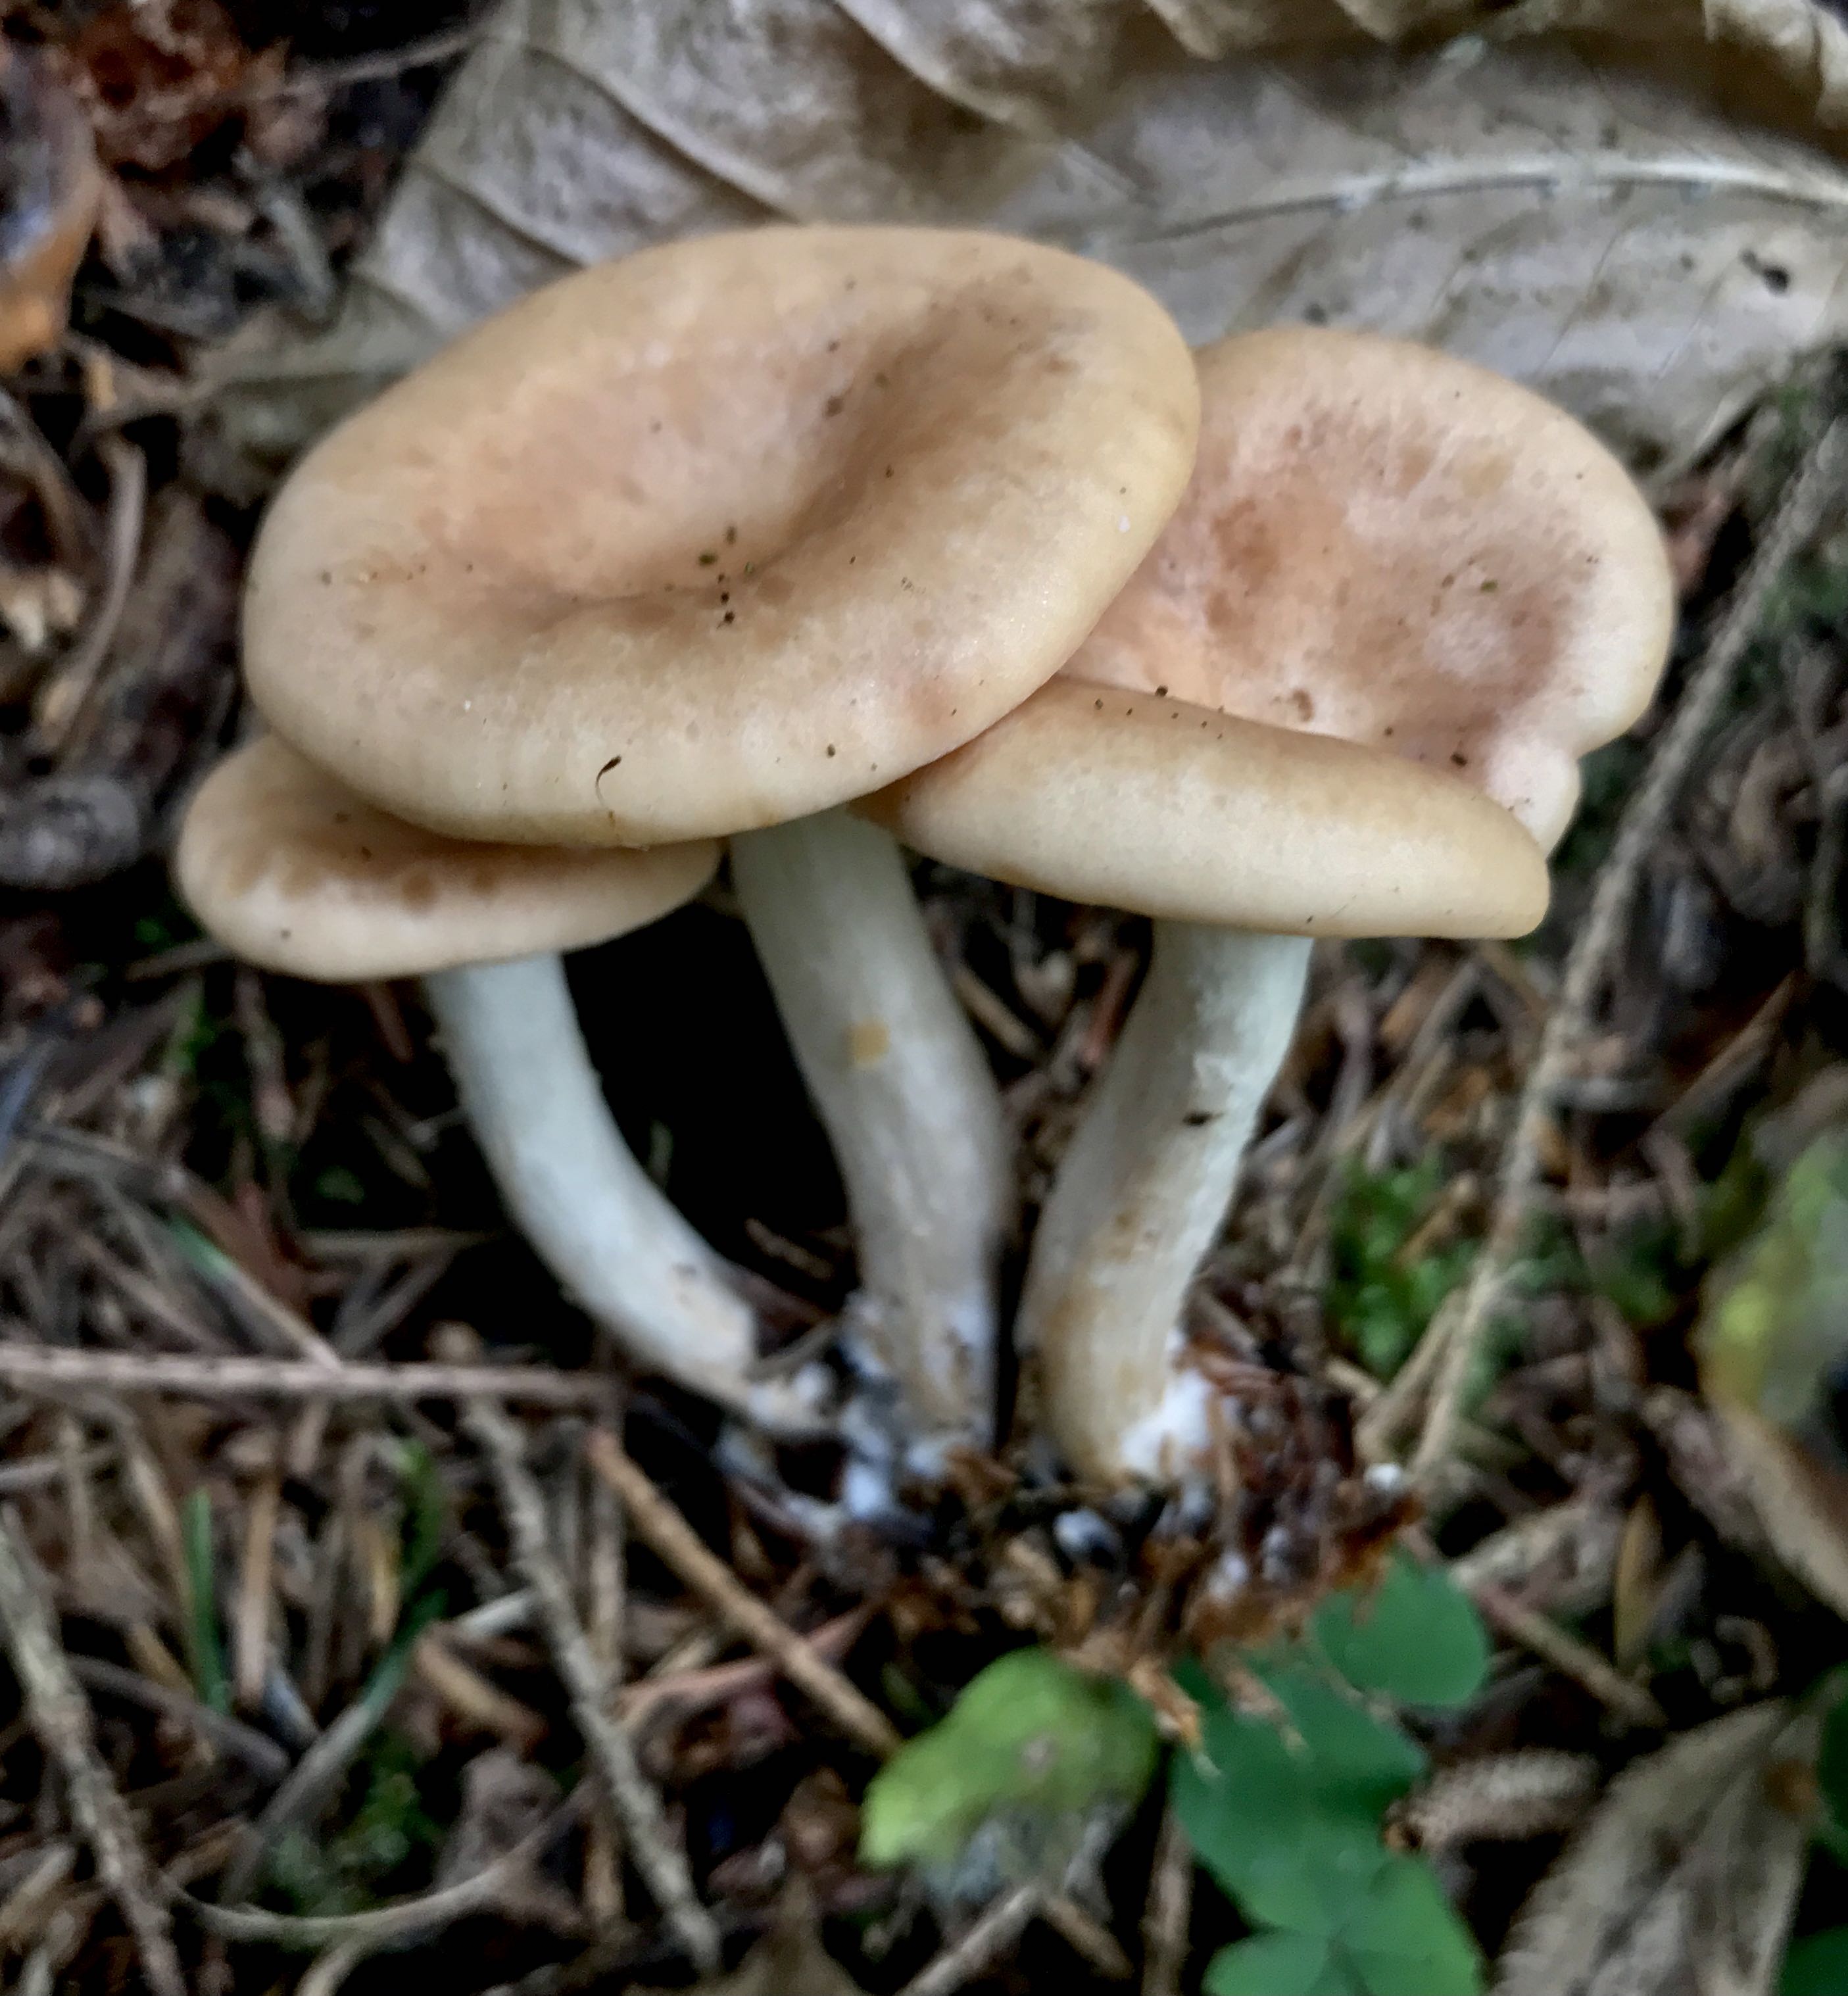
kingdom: Fungi
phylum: Basidiomycota
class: Agaricomycetes
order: Agaricales
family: Tricholomataceae
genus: Paralepista
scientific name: Paralepista gilva
